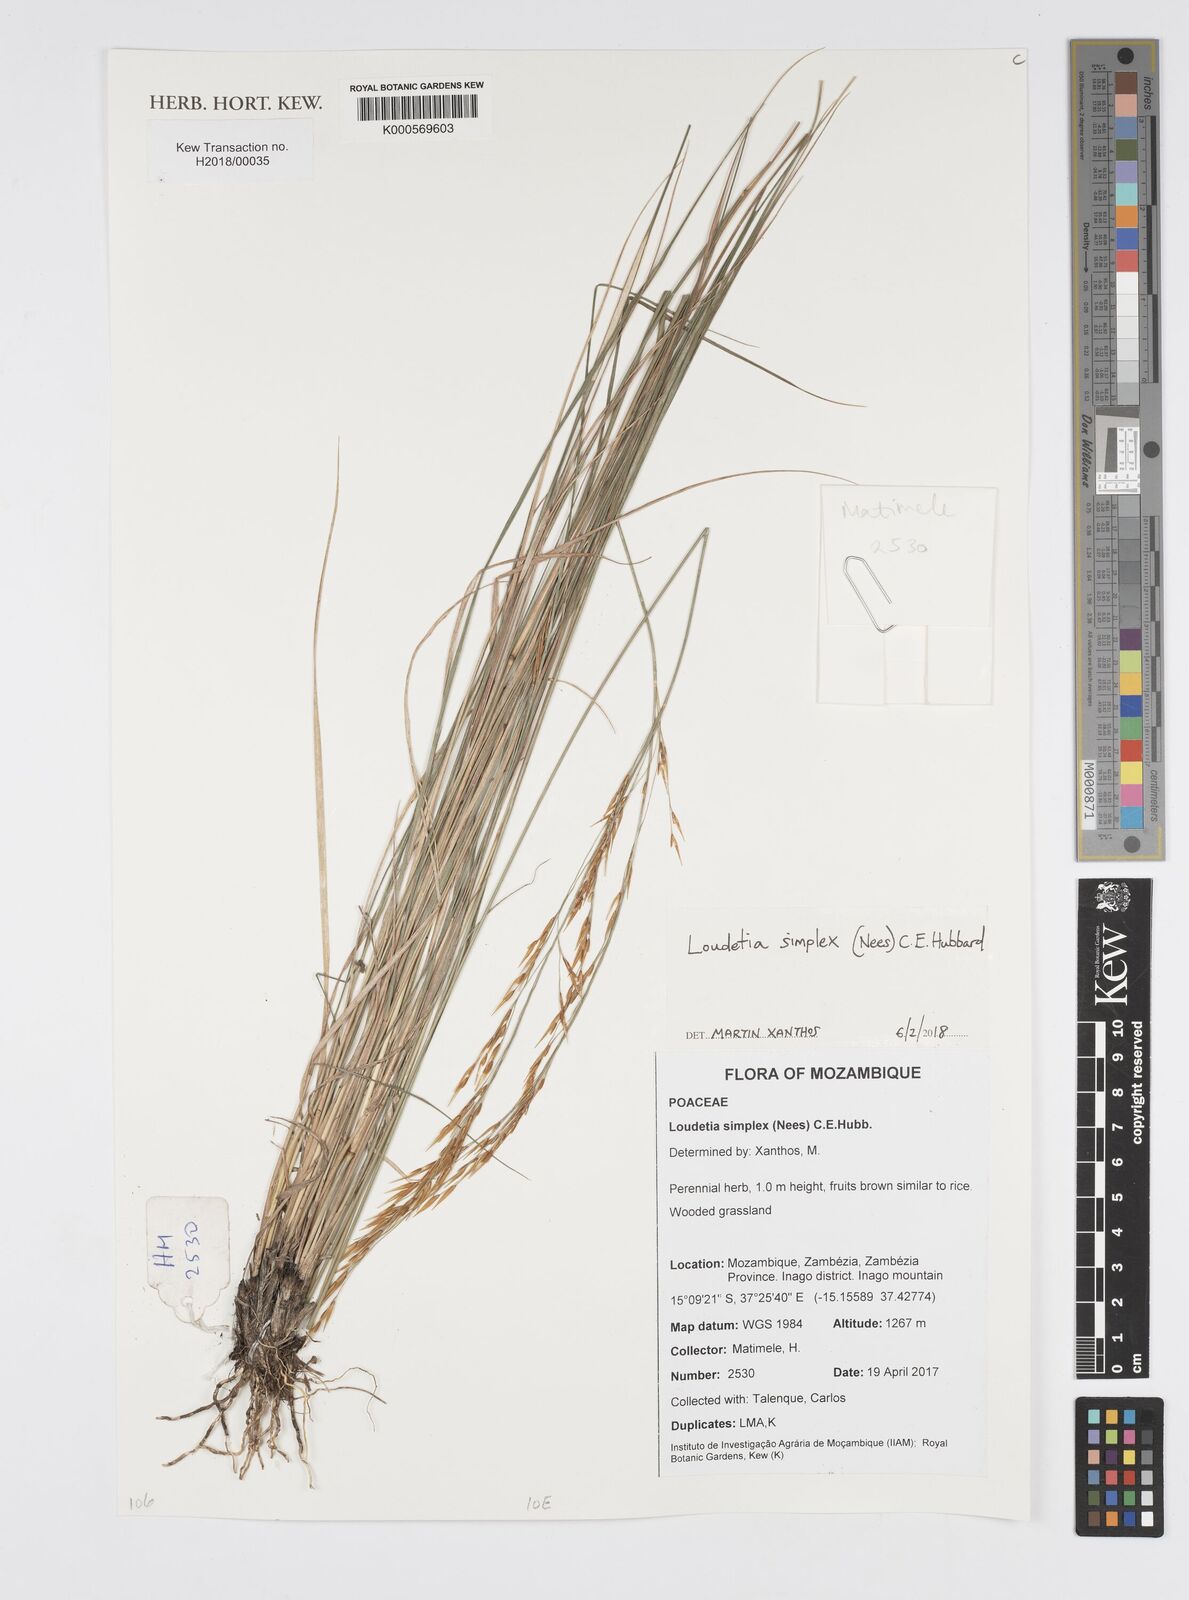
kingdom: Plantae
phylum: Tracheophyta
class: Liliopsida
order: Poales
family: Poaceae
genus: Loudetia
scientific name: Loudetia simplex
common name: Common russet grass
